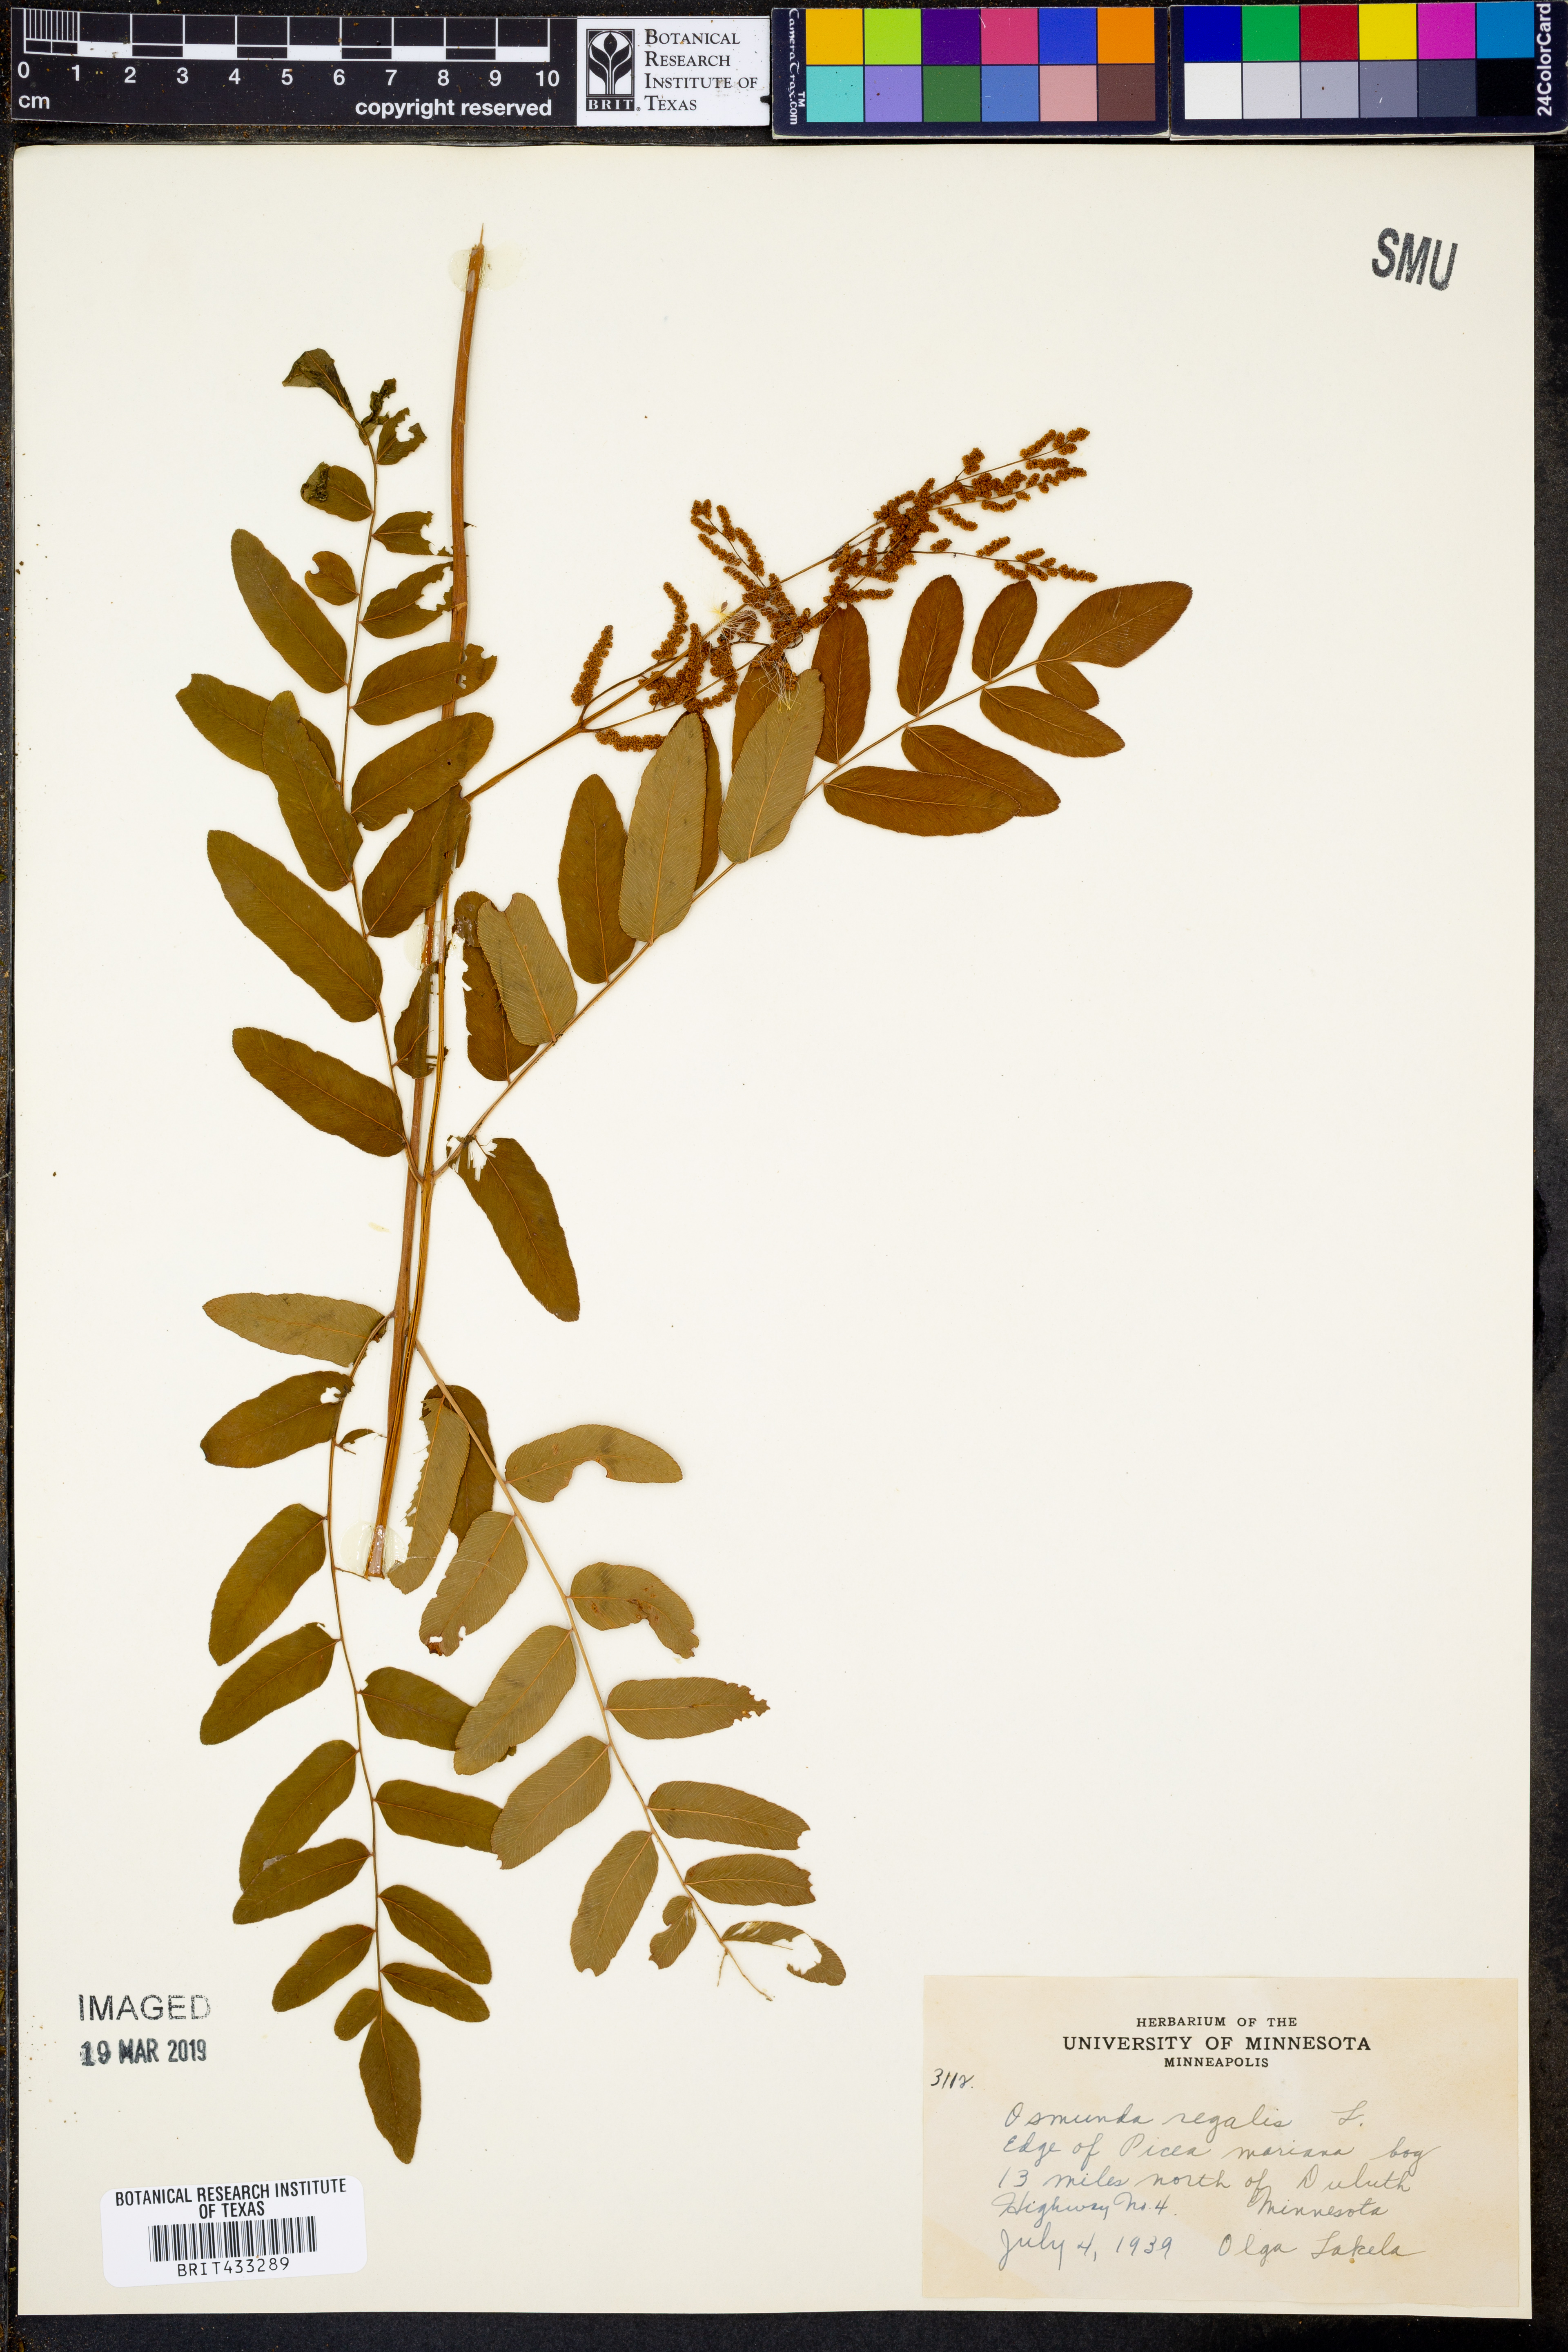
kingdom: Plantae
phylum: Tracheophyta
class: Polypodiopsida
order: Osmundales
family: Osmundaceae
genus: Osmunda
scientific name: Osmunda regalis
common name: Royal fern
